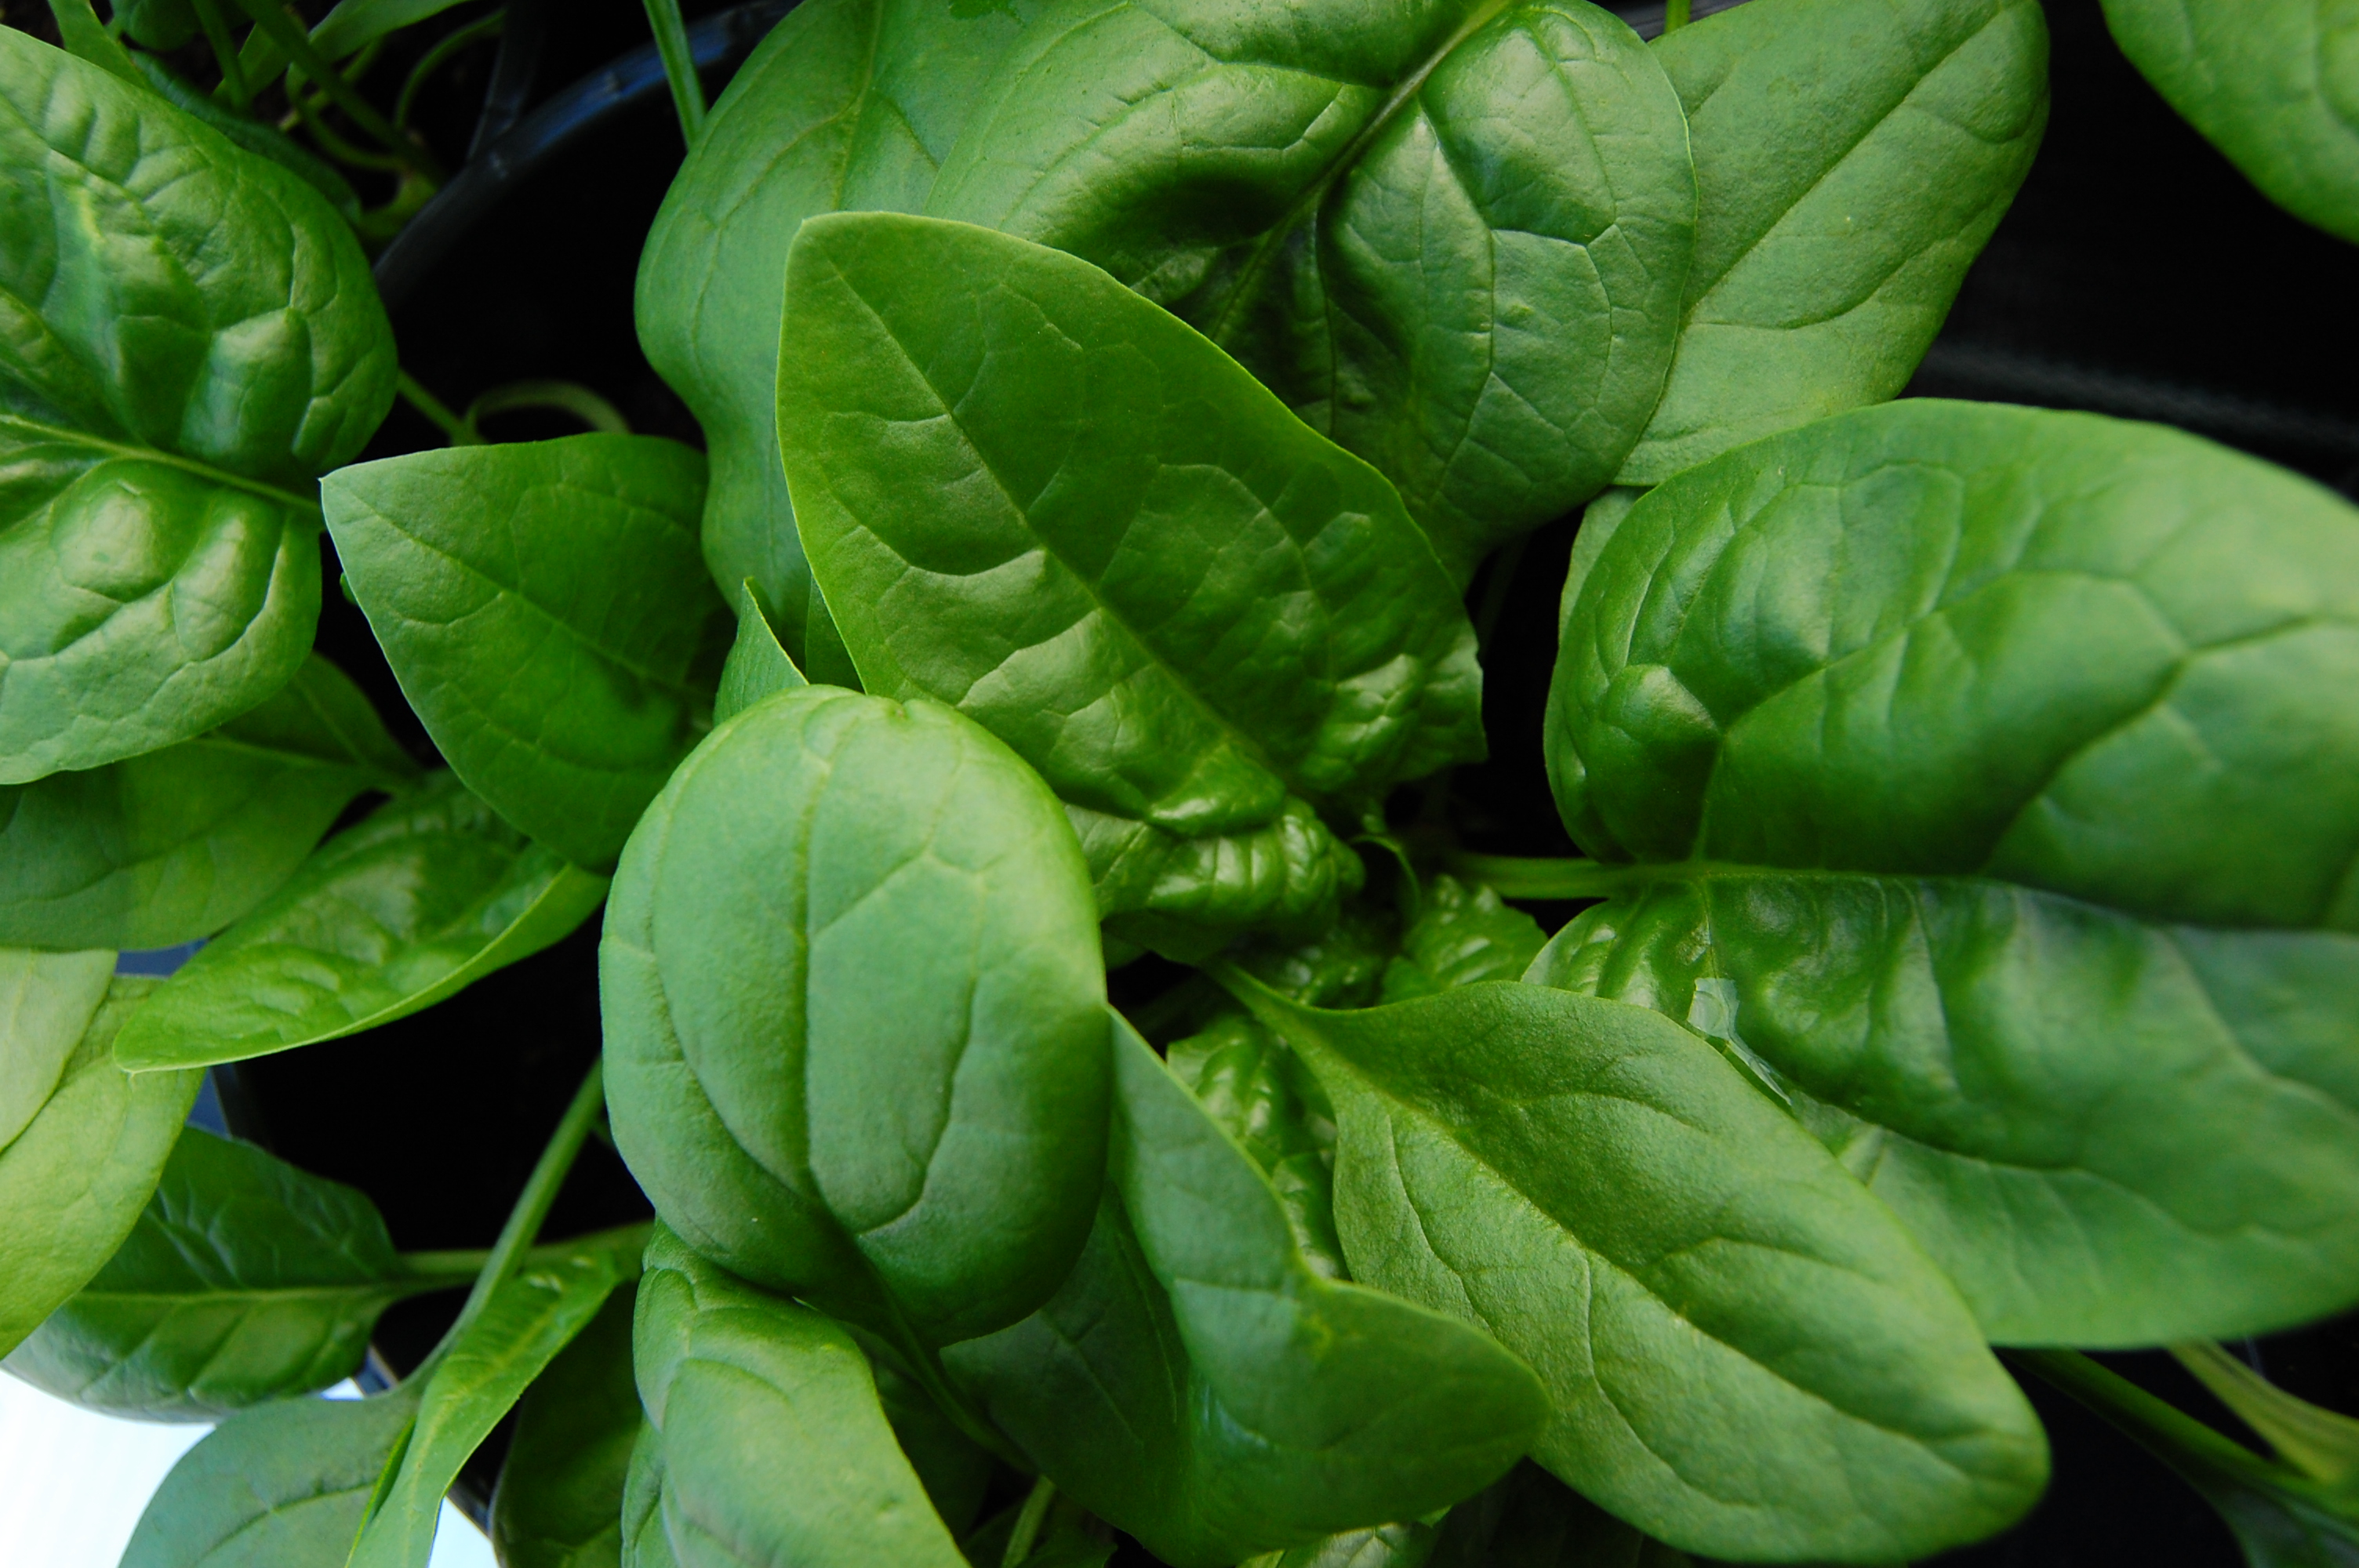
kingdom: Plantae
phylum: Tracheophyta
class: Magnoliopsida
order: Caryophyllales
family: Amaranthaceae
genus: Spinacia
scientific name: Spinacia oleracea
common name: Spinach
